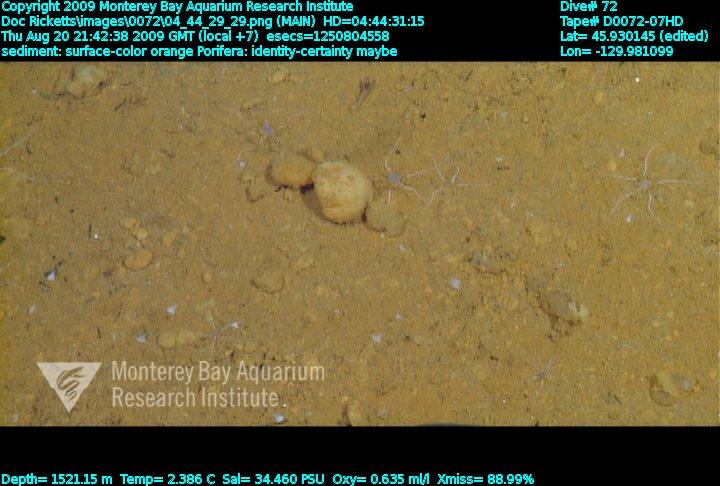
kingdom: Animalia
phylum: Porifera
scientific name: Porifera
